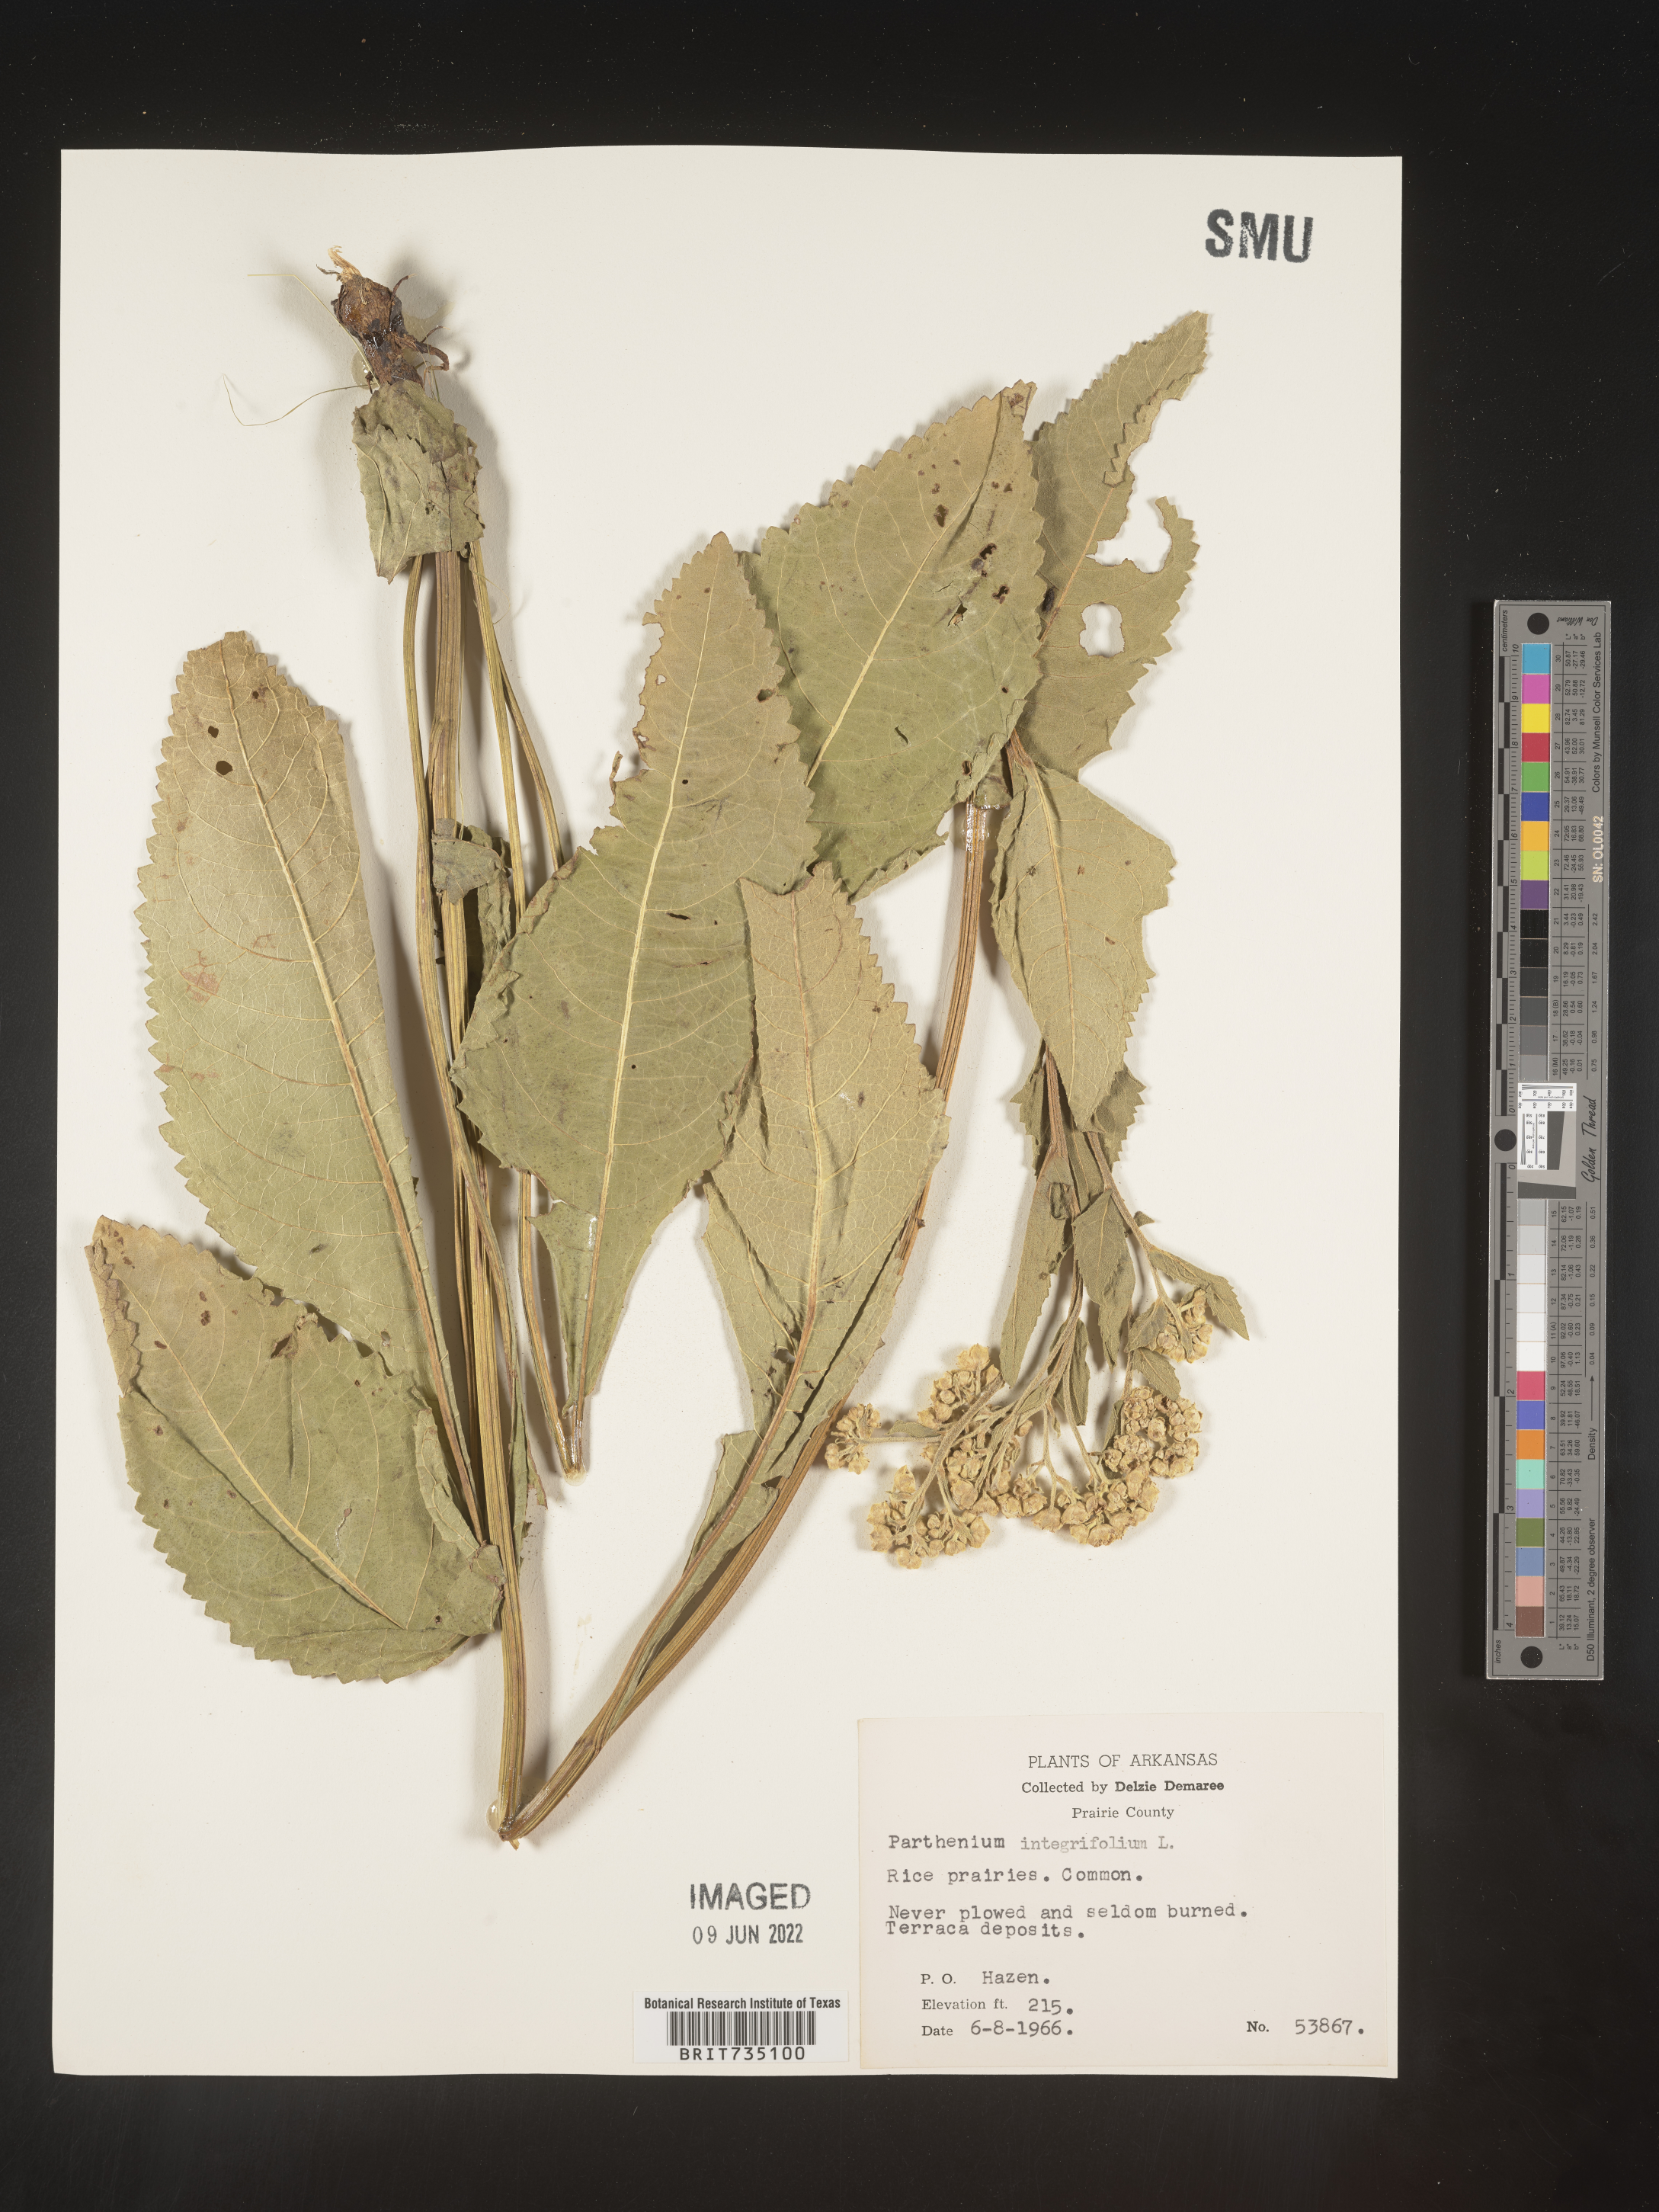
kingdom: Plantae
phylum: Tracheophyta
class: Magnoliopsida
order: Asterales
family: Asteraceae
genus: Parthenium
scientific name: Parthenium integrifolium
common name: American feverfew
